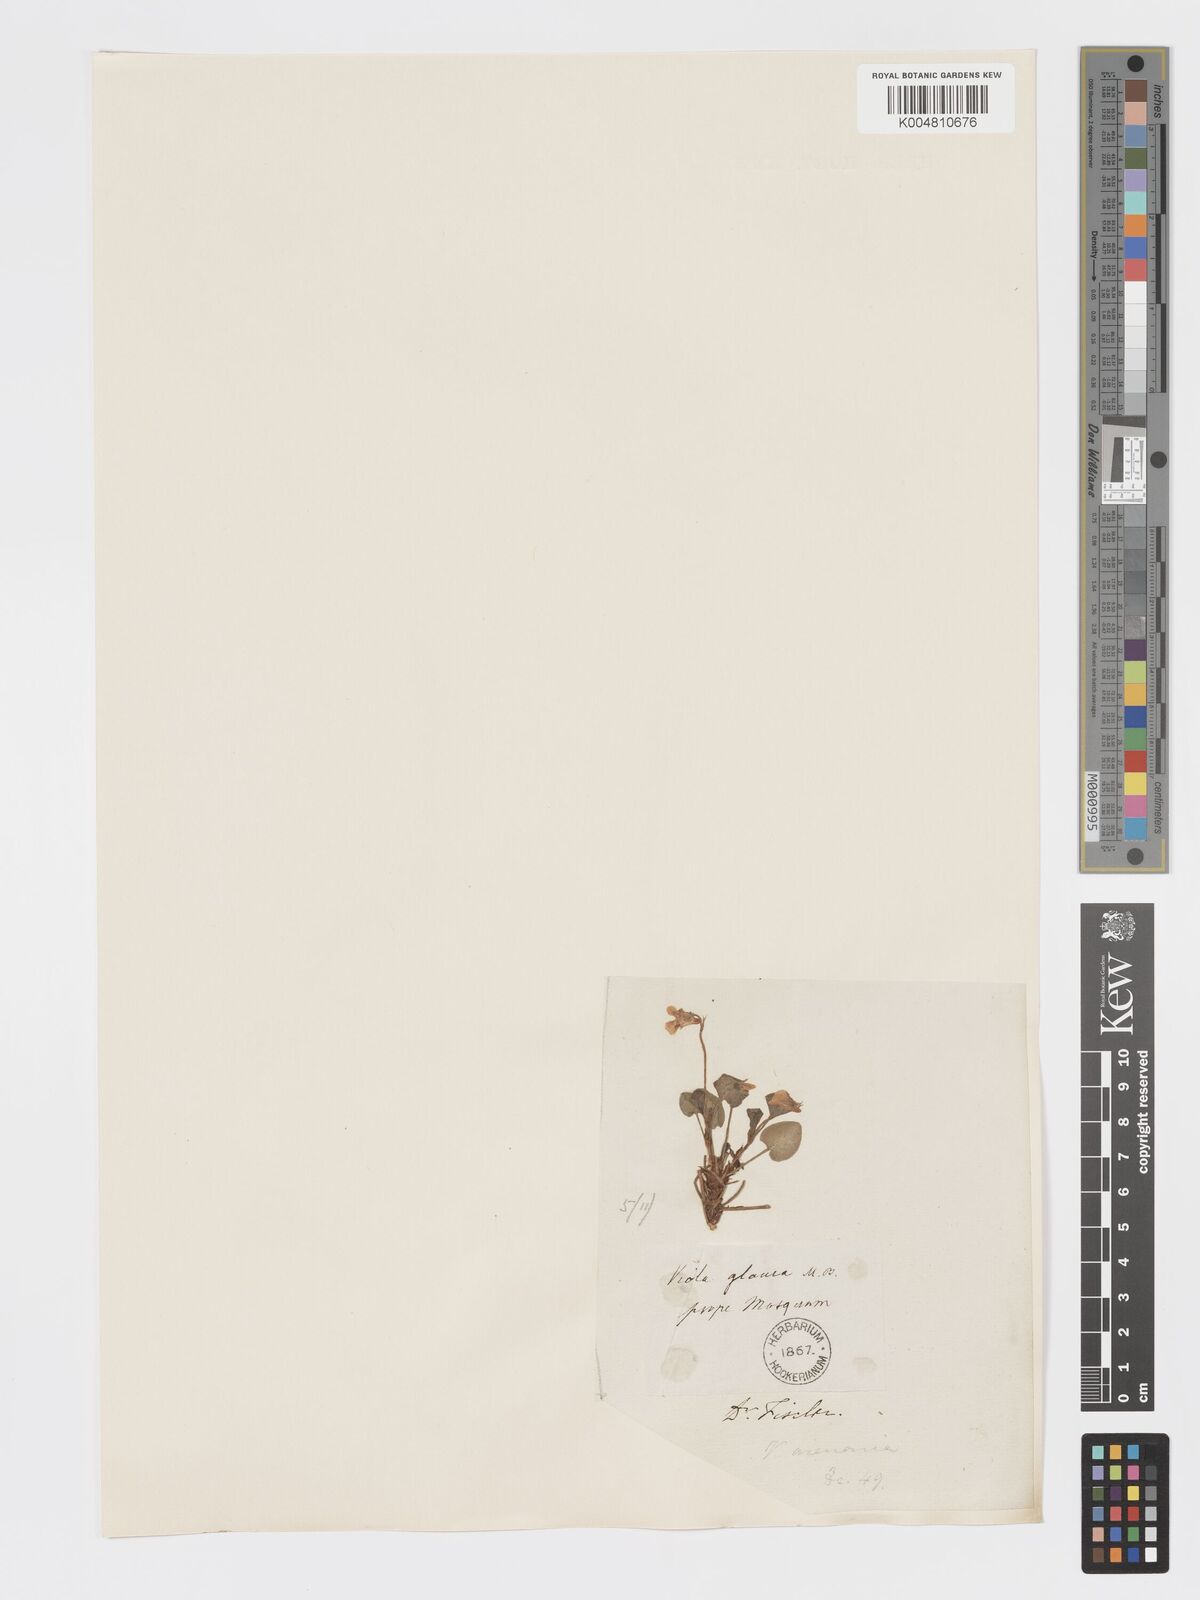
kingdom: Plantae
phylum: Tracheophyta
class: Magnoliopsida
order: Malpighiales
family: Violaceae
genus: Viola
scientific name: Viola rupestris
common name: Teesdale violet
